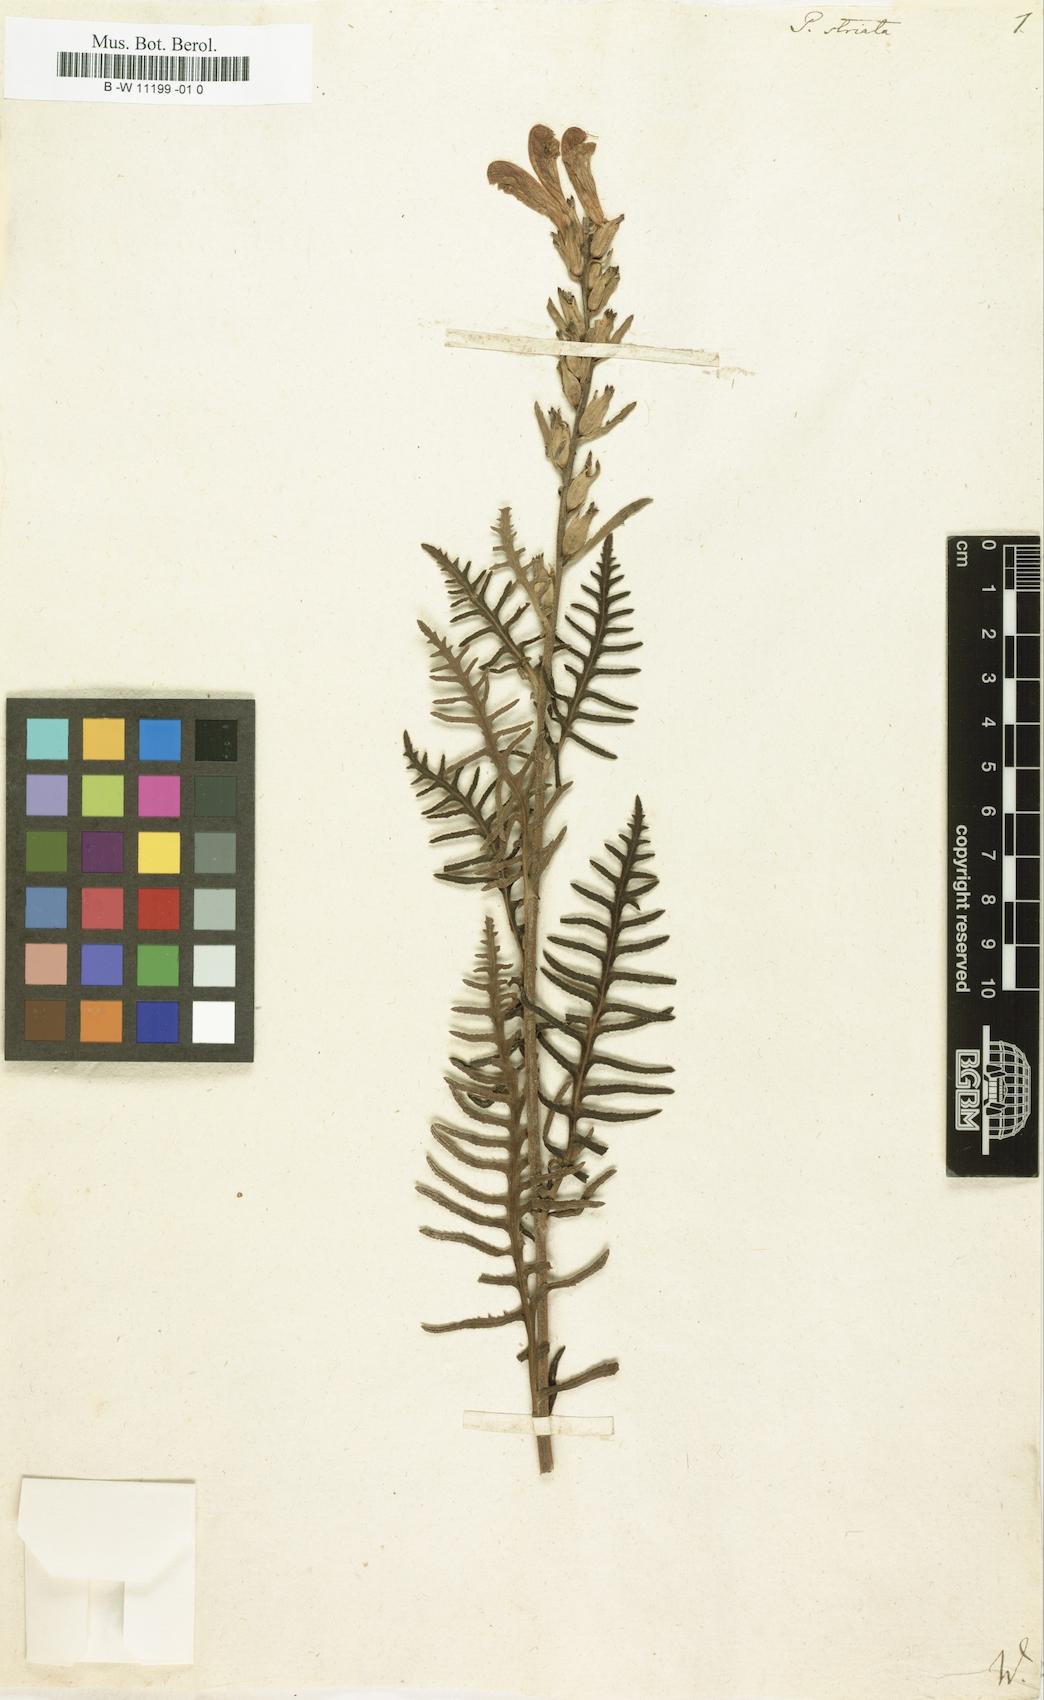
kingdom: Plantae
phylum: Tracheophyta
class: Magnoliopsida
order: Lamiales
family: Orobanchaceae
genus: Pedicularis
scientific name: Pedicularis striata
